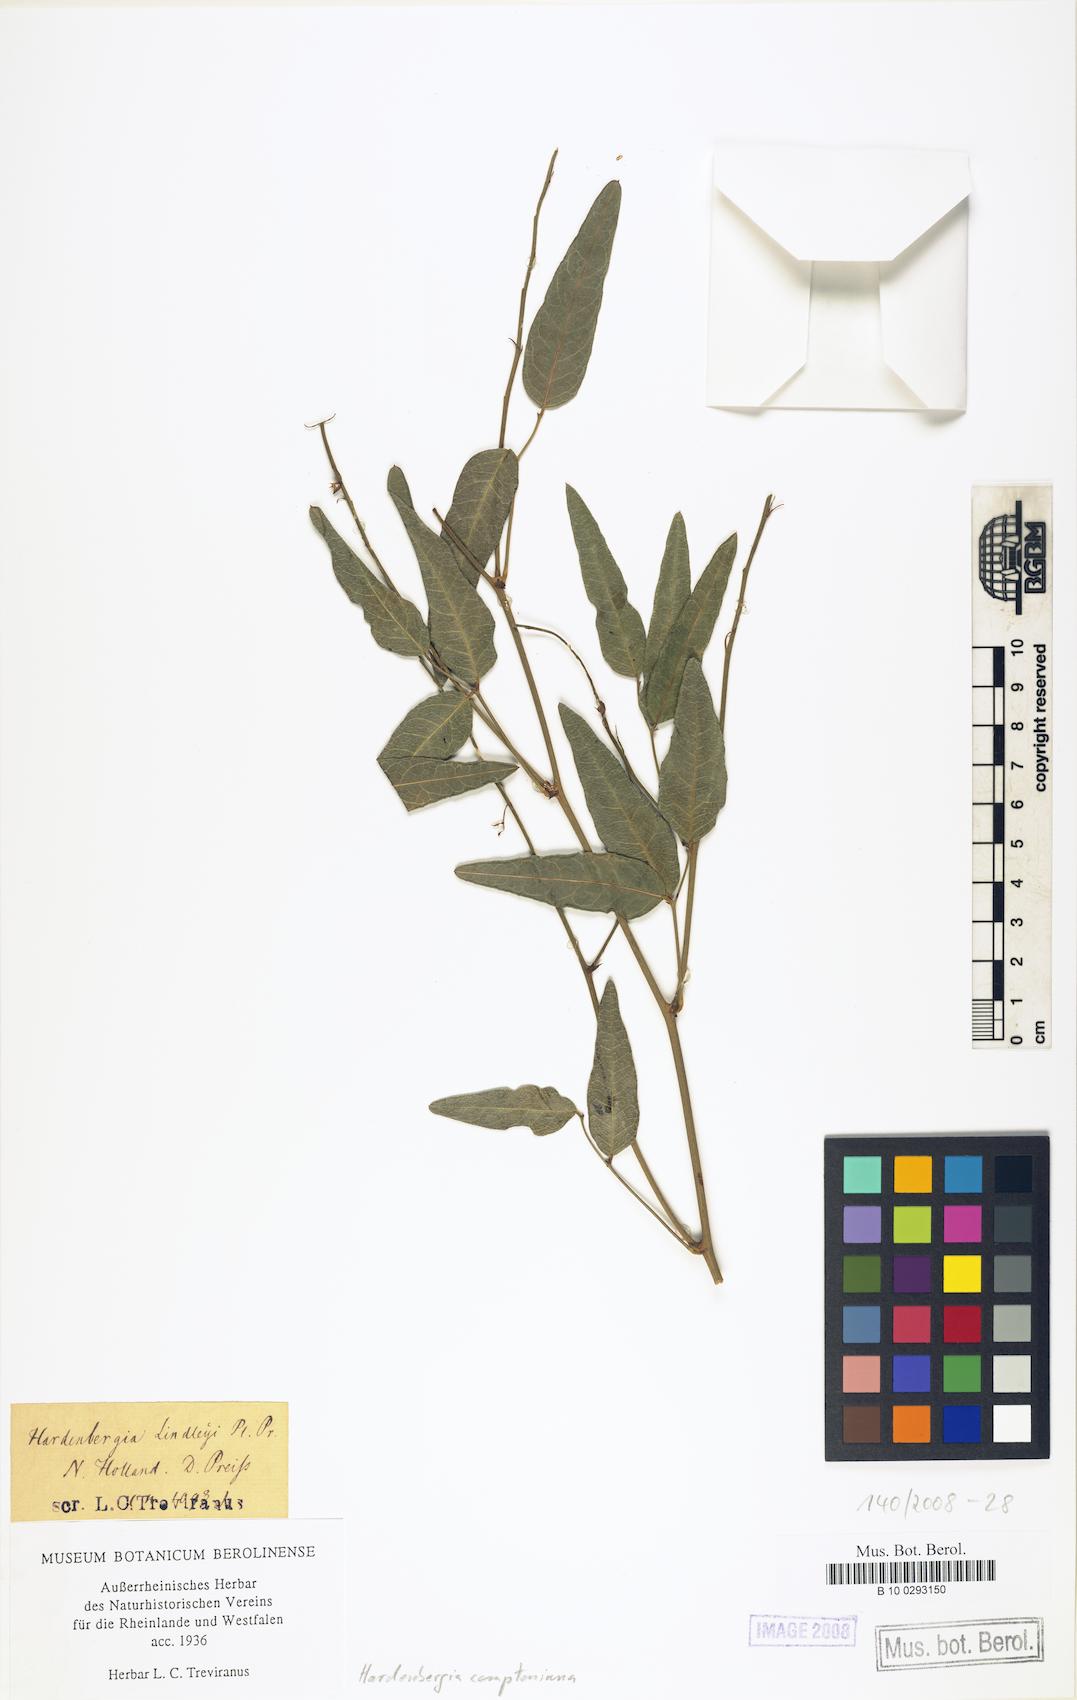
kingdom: Plantae
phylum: Tracheophyta
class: Magnoliopsida
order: Fabales
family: Fabaceae
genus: Hardenbergia
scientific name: Hardenbergia comptoniana
